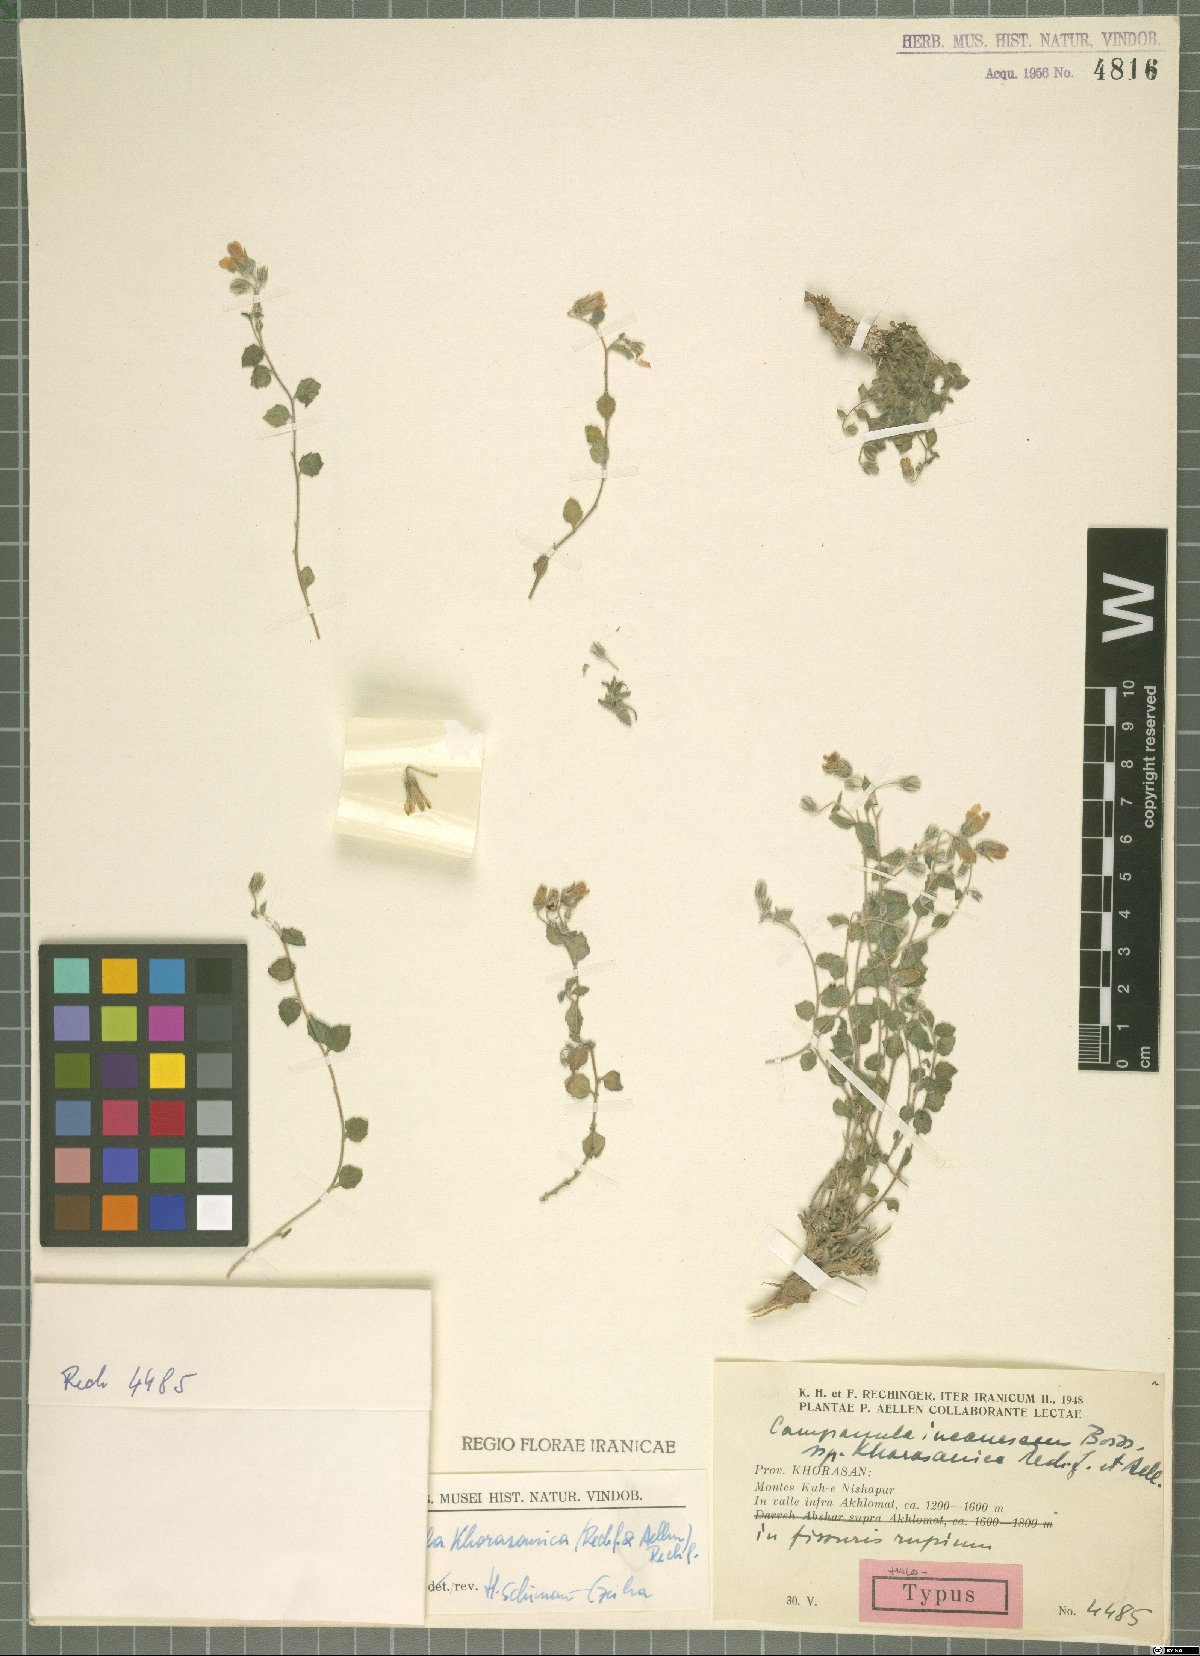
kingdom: Plantae
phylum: Tracheophyta
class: Magnoliopsida
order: Asterales
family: Campanulaceae
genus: Campanula
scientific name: Campanula khorasanica
